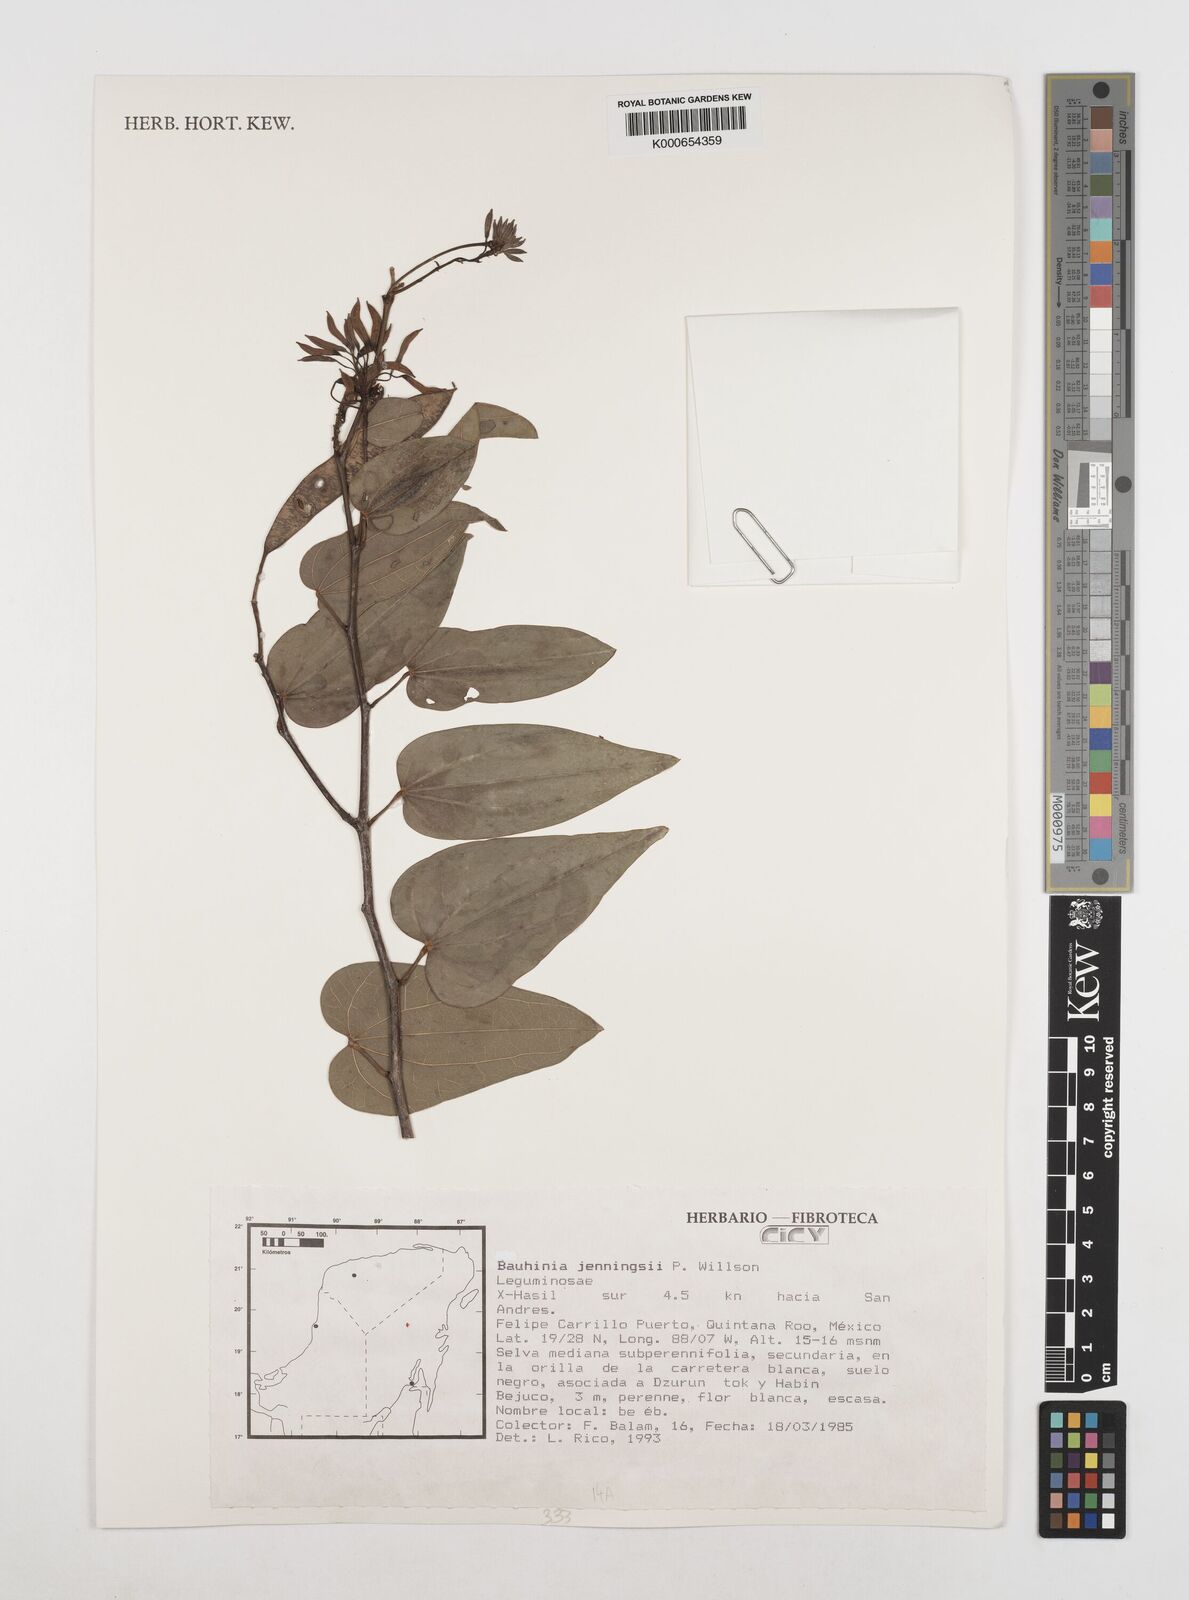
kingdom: Plantae
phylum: Tracheophyta
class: Magnoliopsida
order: Fabales
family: Fabaceae
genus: Bauhinia
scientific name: Bauhinia jenningsii
